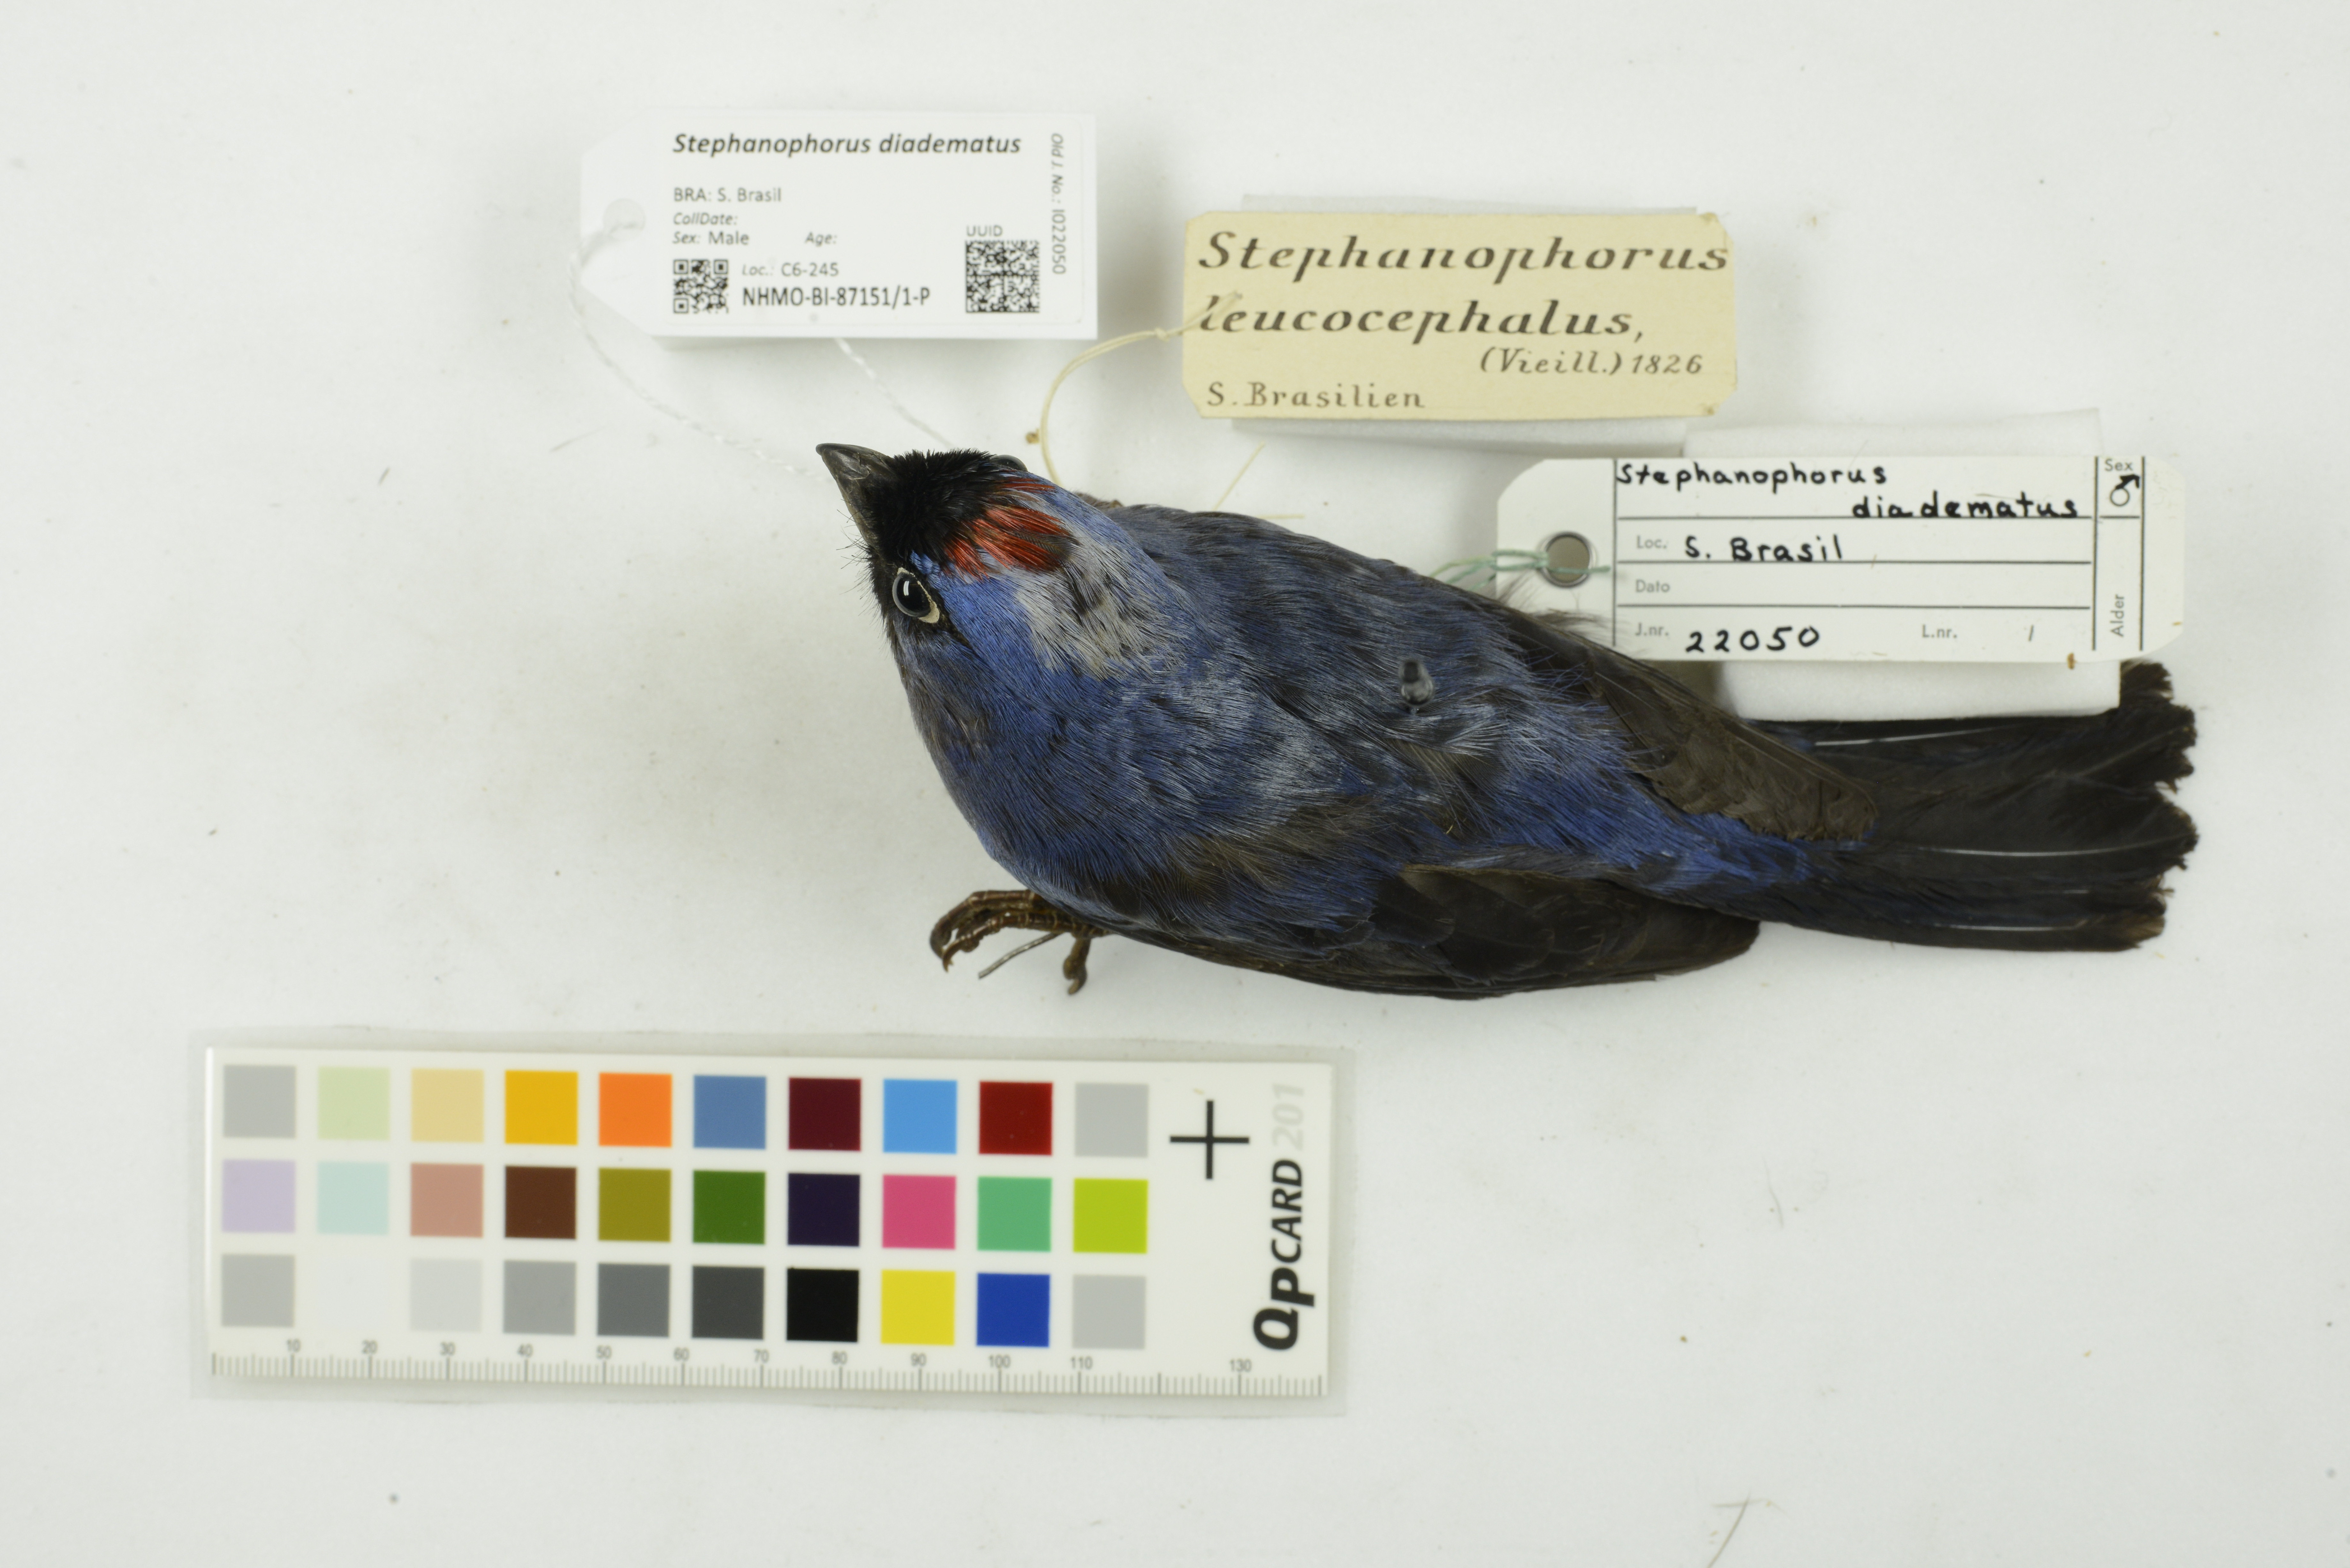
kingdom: Animalia
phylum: Chordata
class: Aves
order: Passeriformes
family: Thraupidae
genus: Stephanophorus
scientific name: Stephanophorus diadematus
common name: Diademed tanager
